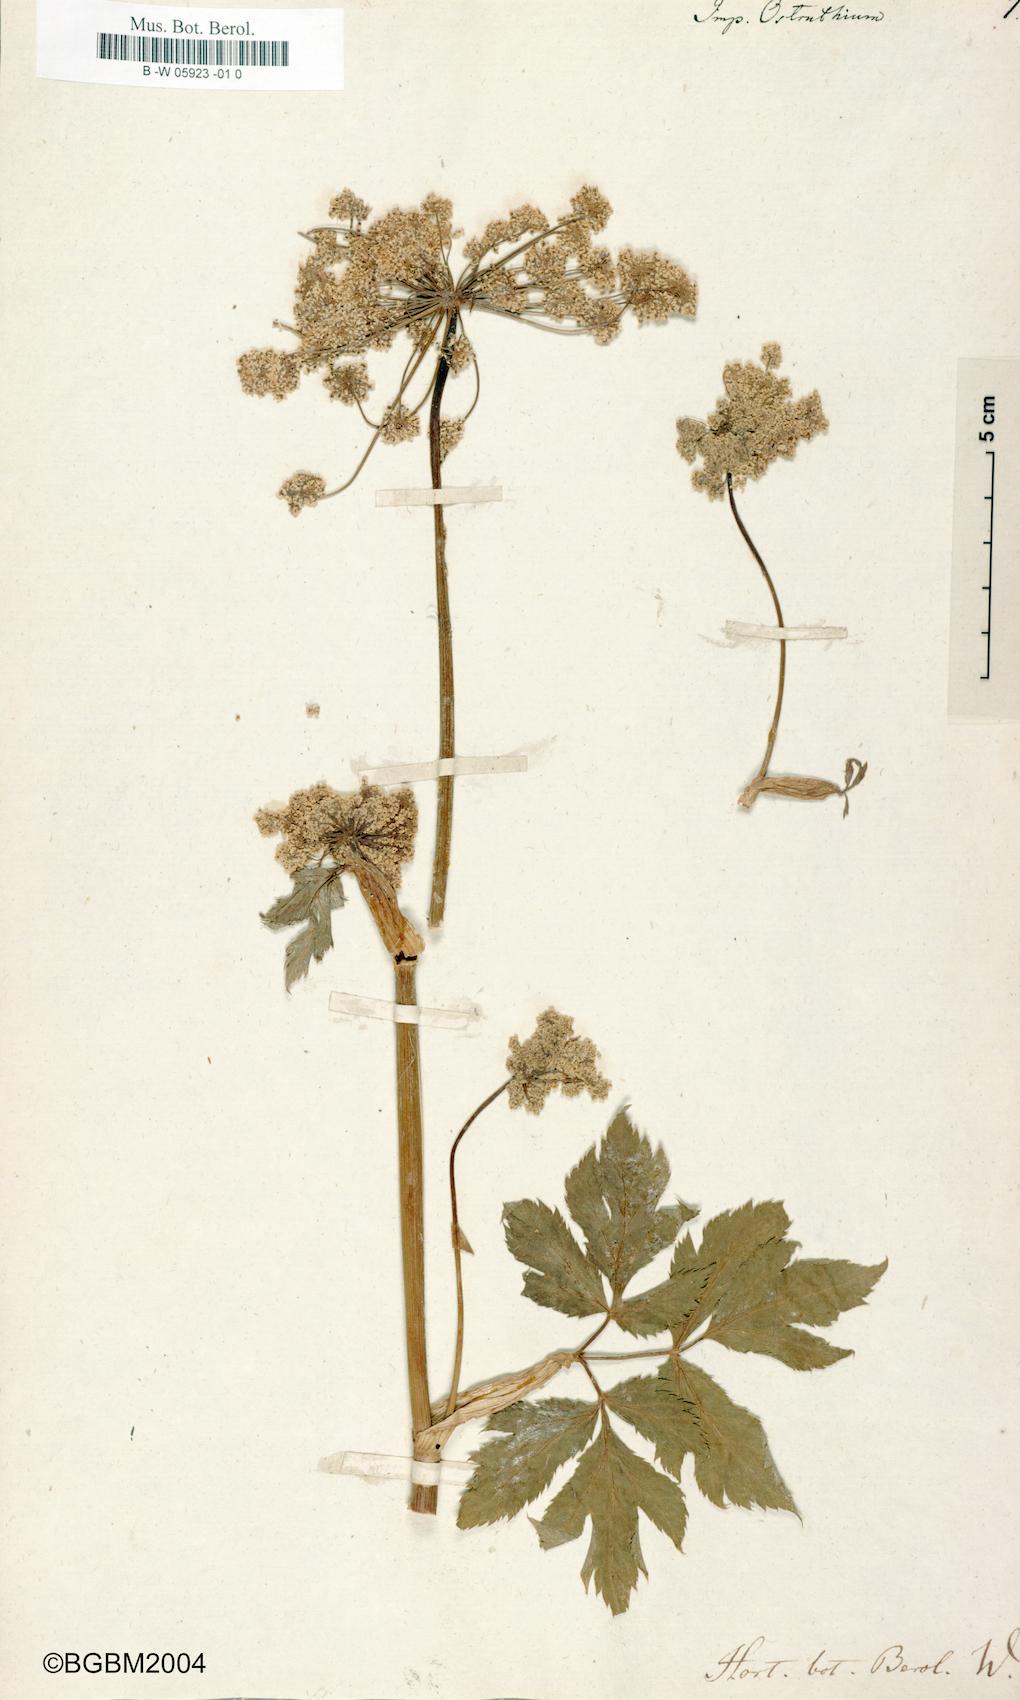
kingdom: Plantae
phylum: Tracheophyta
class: Magnoliopsida
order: Apiales
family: Apiaceae
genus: Imperatoria
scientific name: Imperatoria ostruthium
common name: Masterwort
